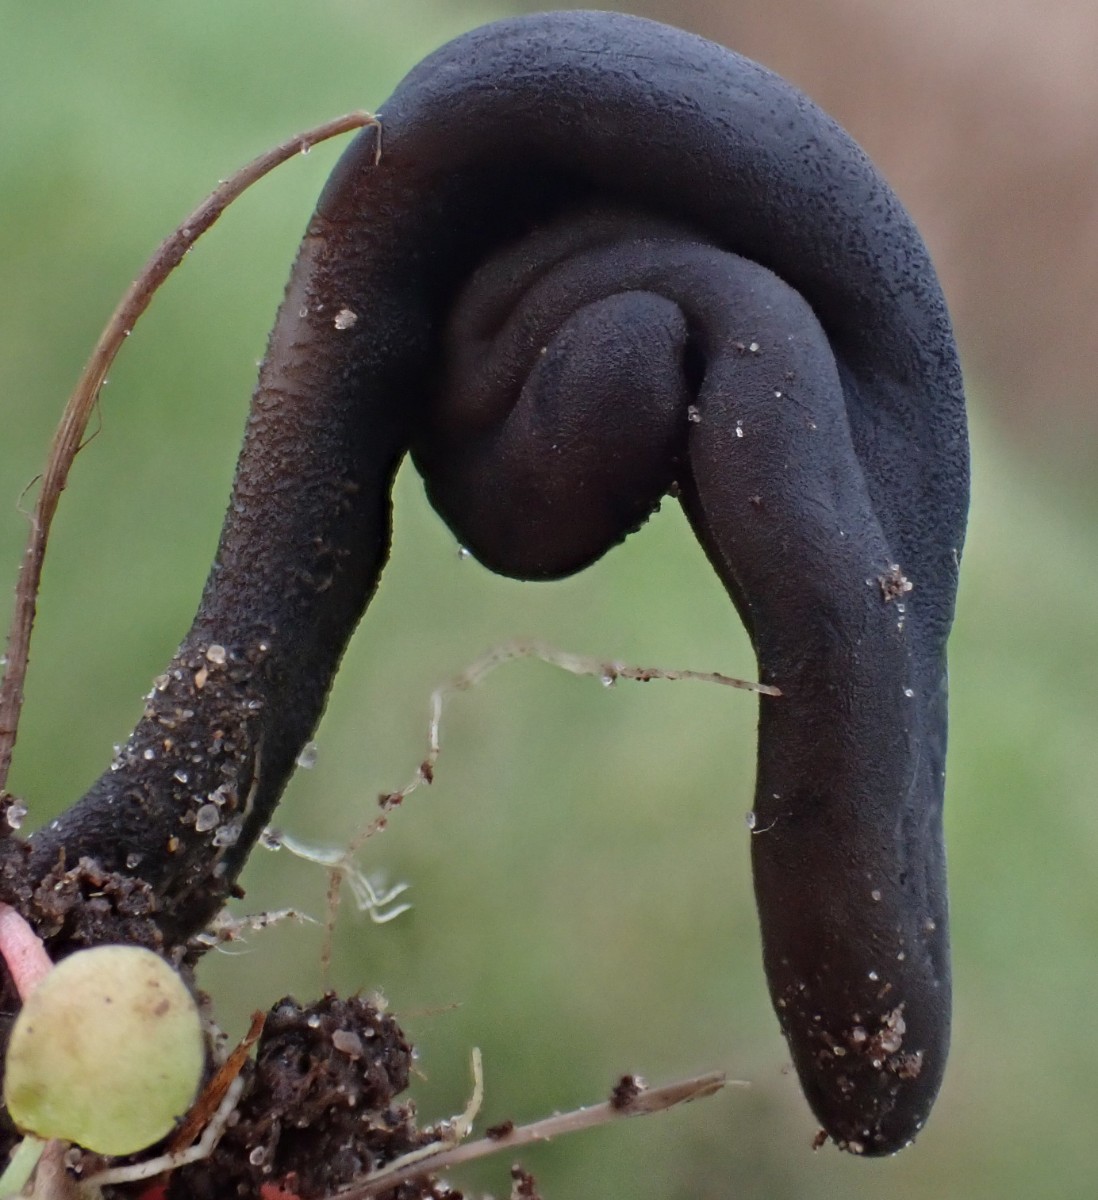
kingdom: Fungi
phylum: Ascomycota
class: Geoglossomycetes
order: Geoglossales
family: Geoglossaceae
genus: Geoglossum
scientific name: Geoglossum
